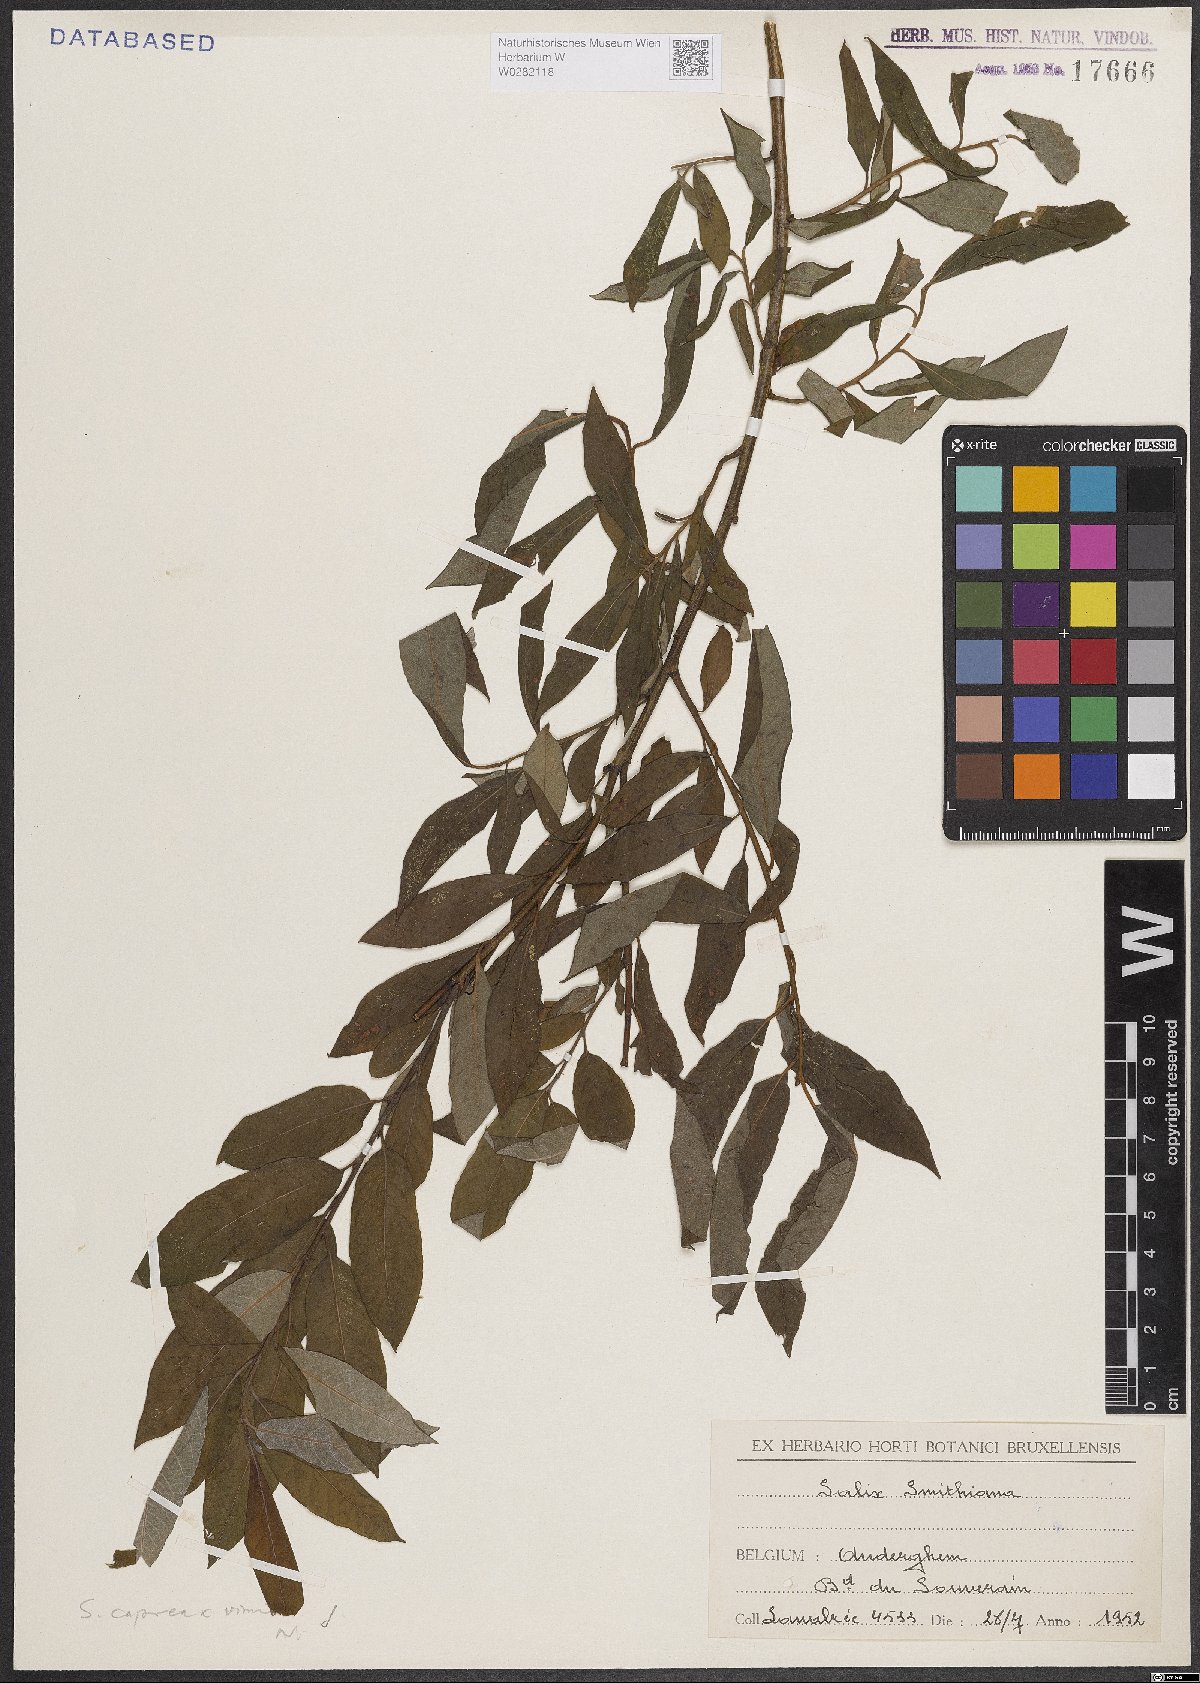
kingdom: Plantae
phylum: Tracheophyta
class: Magnoliopsida
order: Malpighiales
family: Salicaceae
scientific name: Salicaceae
